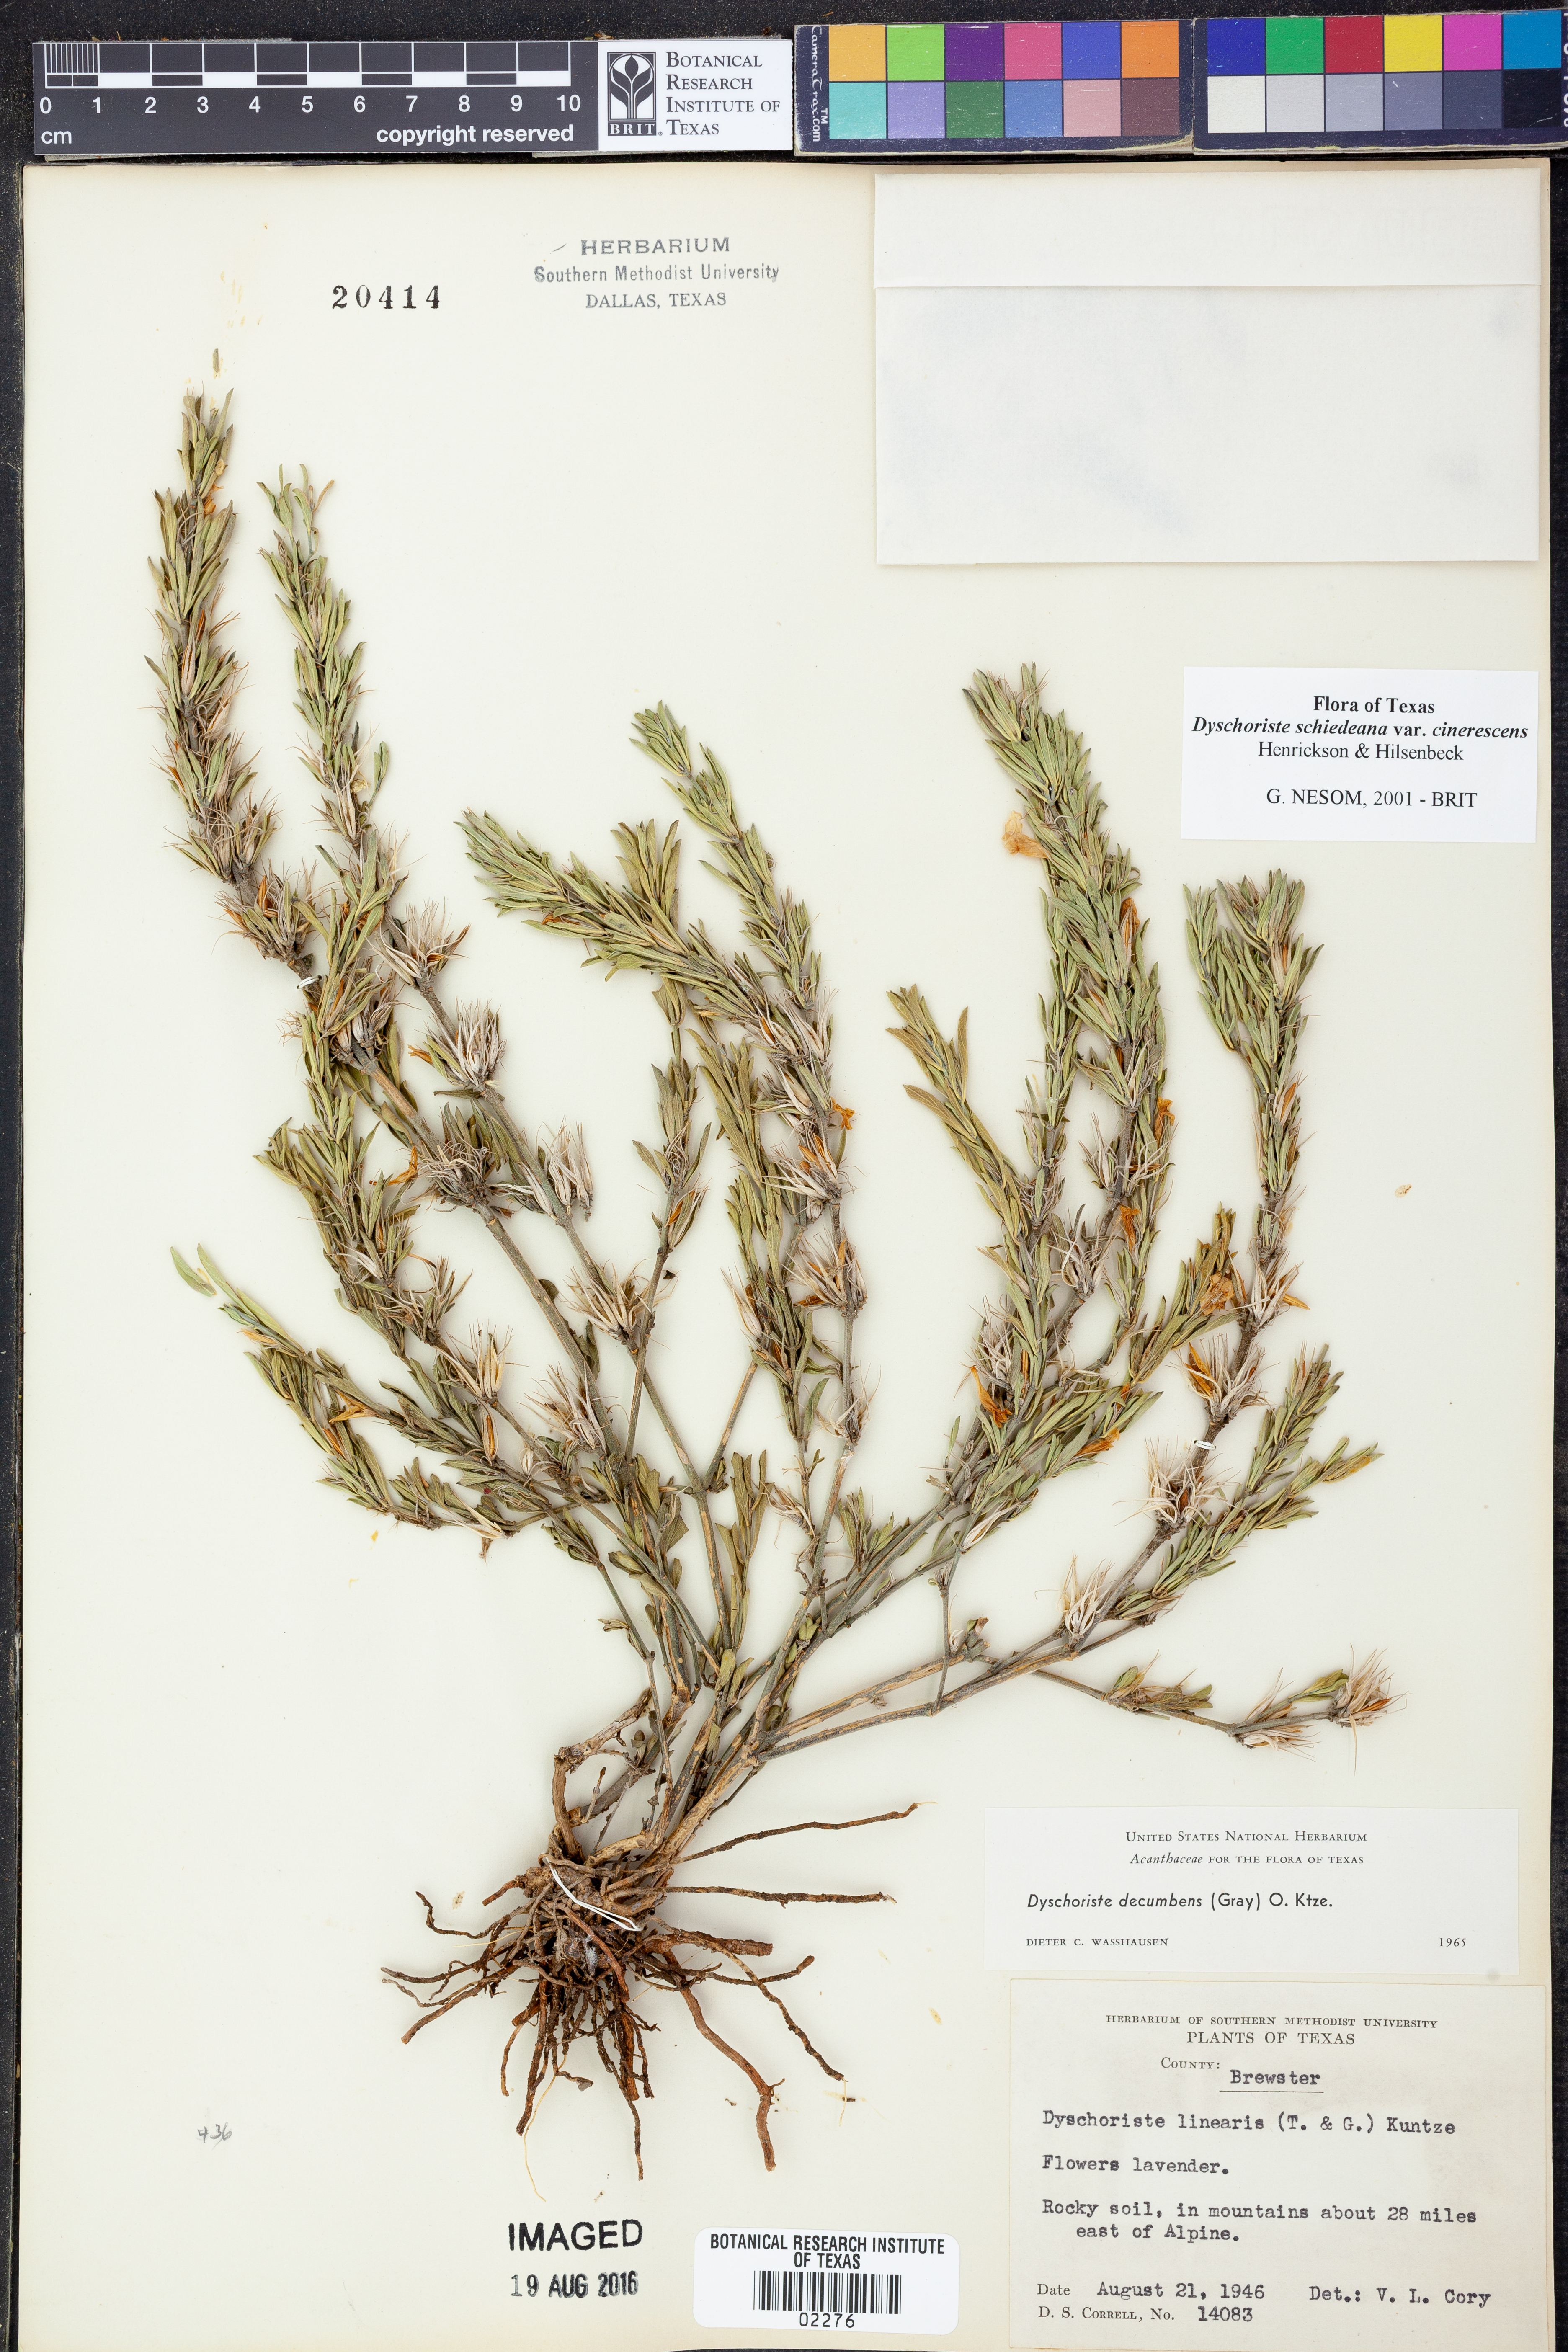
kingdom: Plantae
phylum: Tracheophyta
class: Magnoliopsida
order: Lamiales
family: Acanthaceae
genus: Dyschoriste
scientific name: Dyschoriste cinerascens
